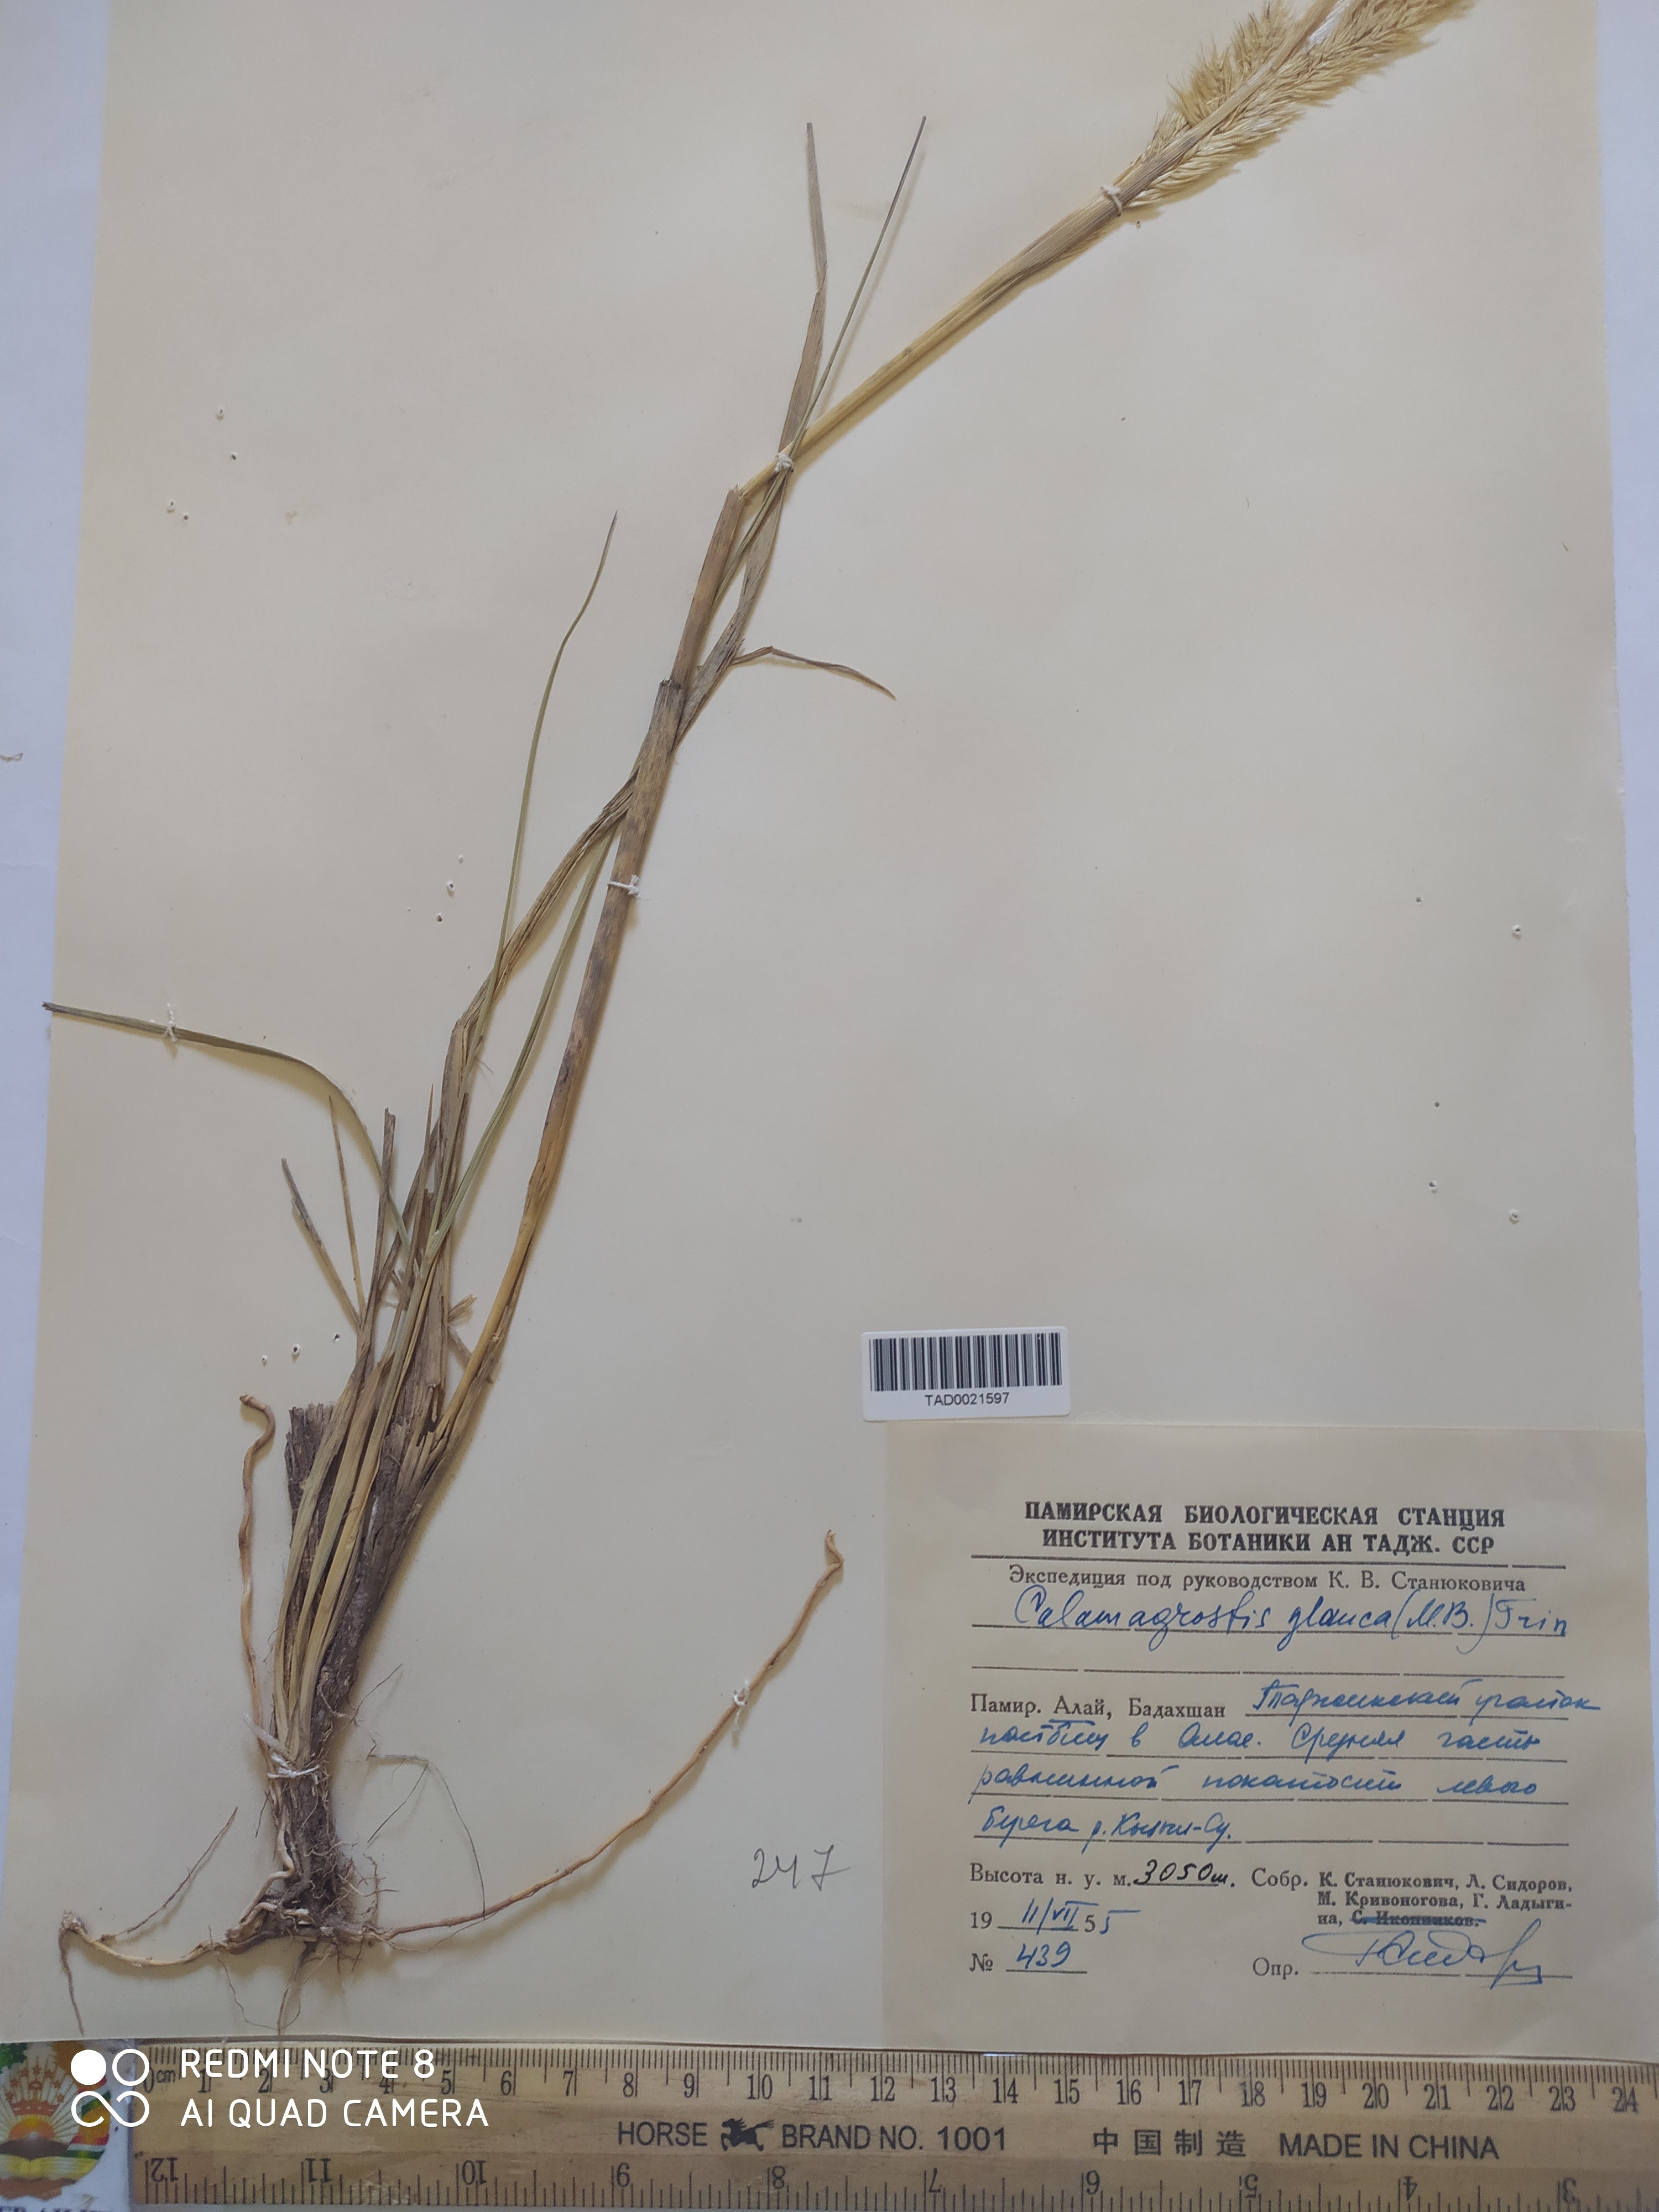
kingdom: Plantae
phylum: Tracheophyta
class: Liliopsida
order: Poales
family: Poaceae
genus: Calamagrostis
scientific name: Calamagrostis pseudophragmites
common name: Coastal small-reed
